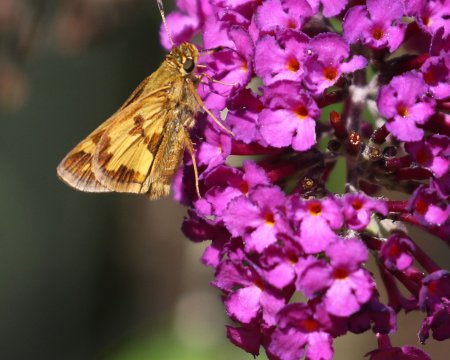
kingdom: Animalia
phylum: Arthropoda
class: Insecta
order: Lepidoptera
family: Hesperiidae
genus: Polites
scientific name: Polites coras
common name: Peck's Skipper
